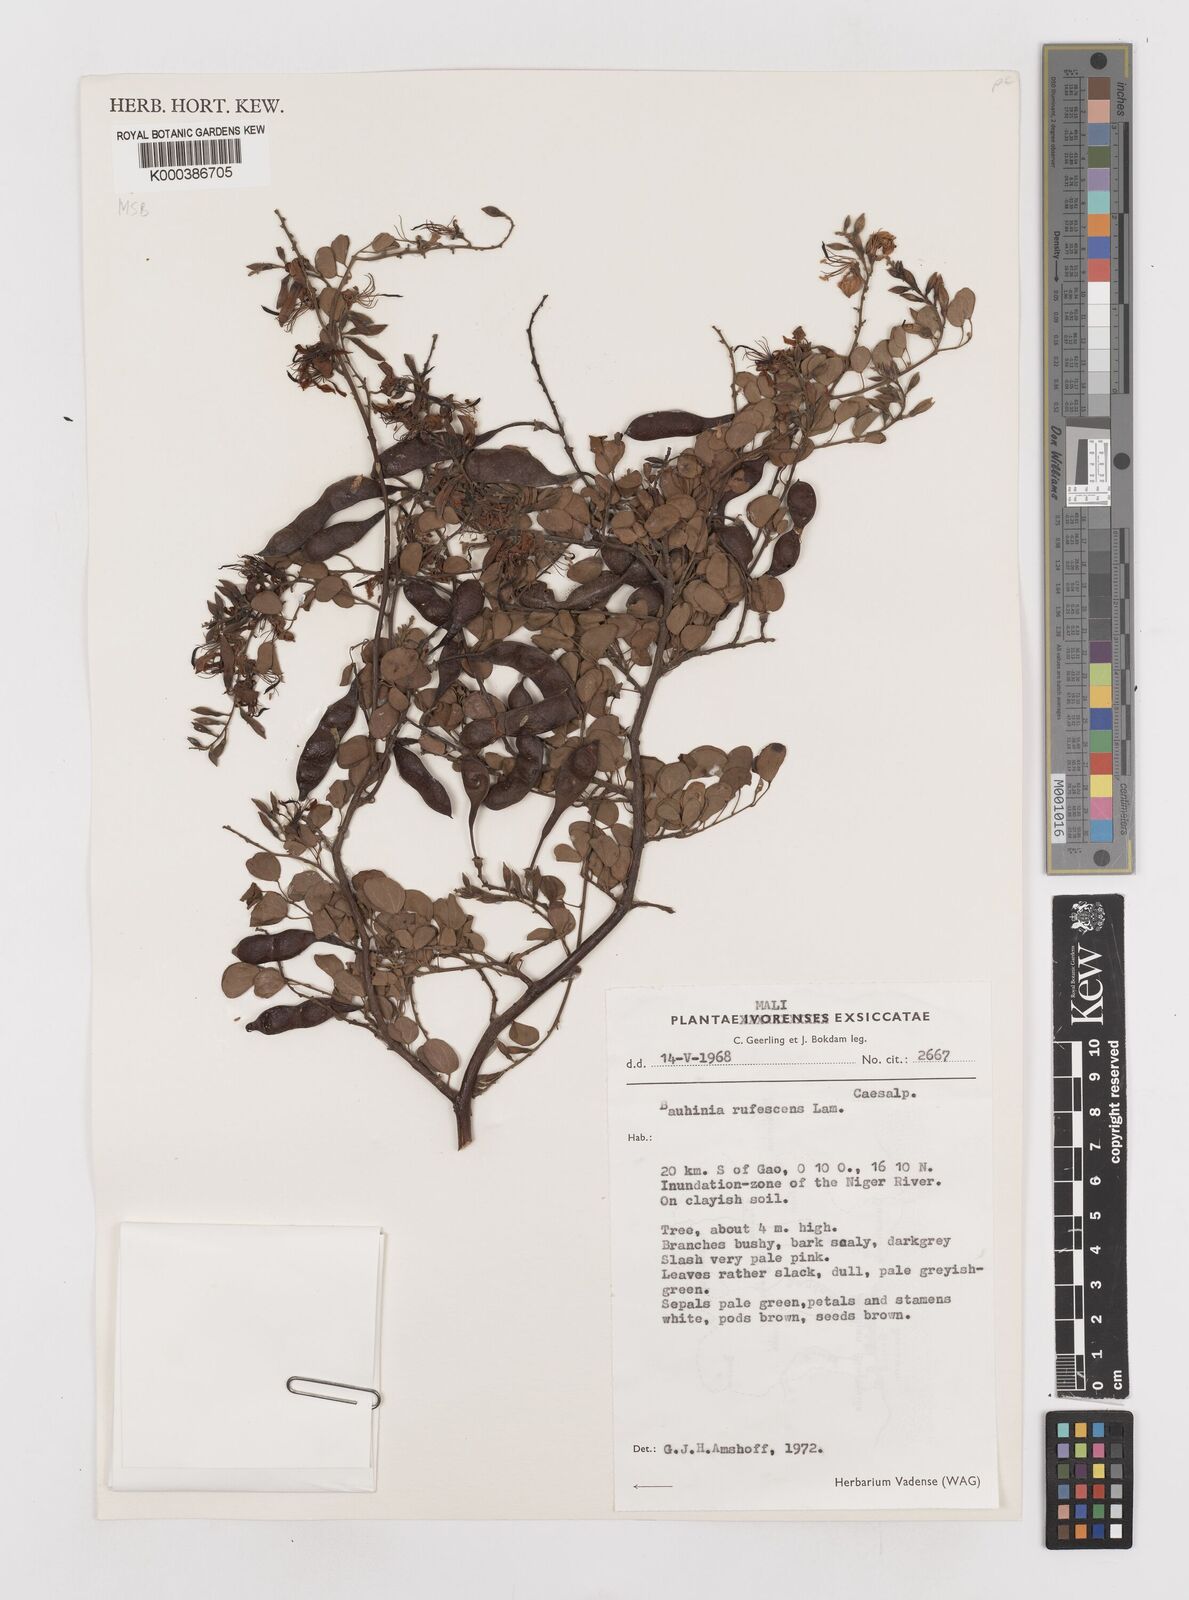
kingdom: Plantae
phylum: Tracheophyta
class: Magnoliopsida
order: Fabales
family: Fabaceae
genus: Bauhinia
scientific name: Bauhinia rufescens
